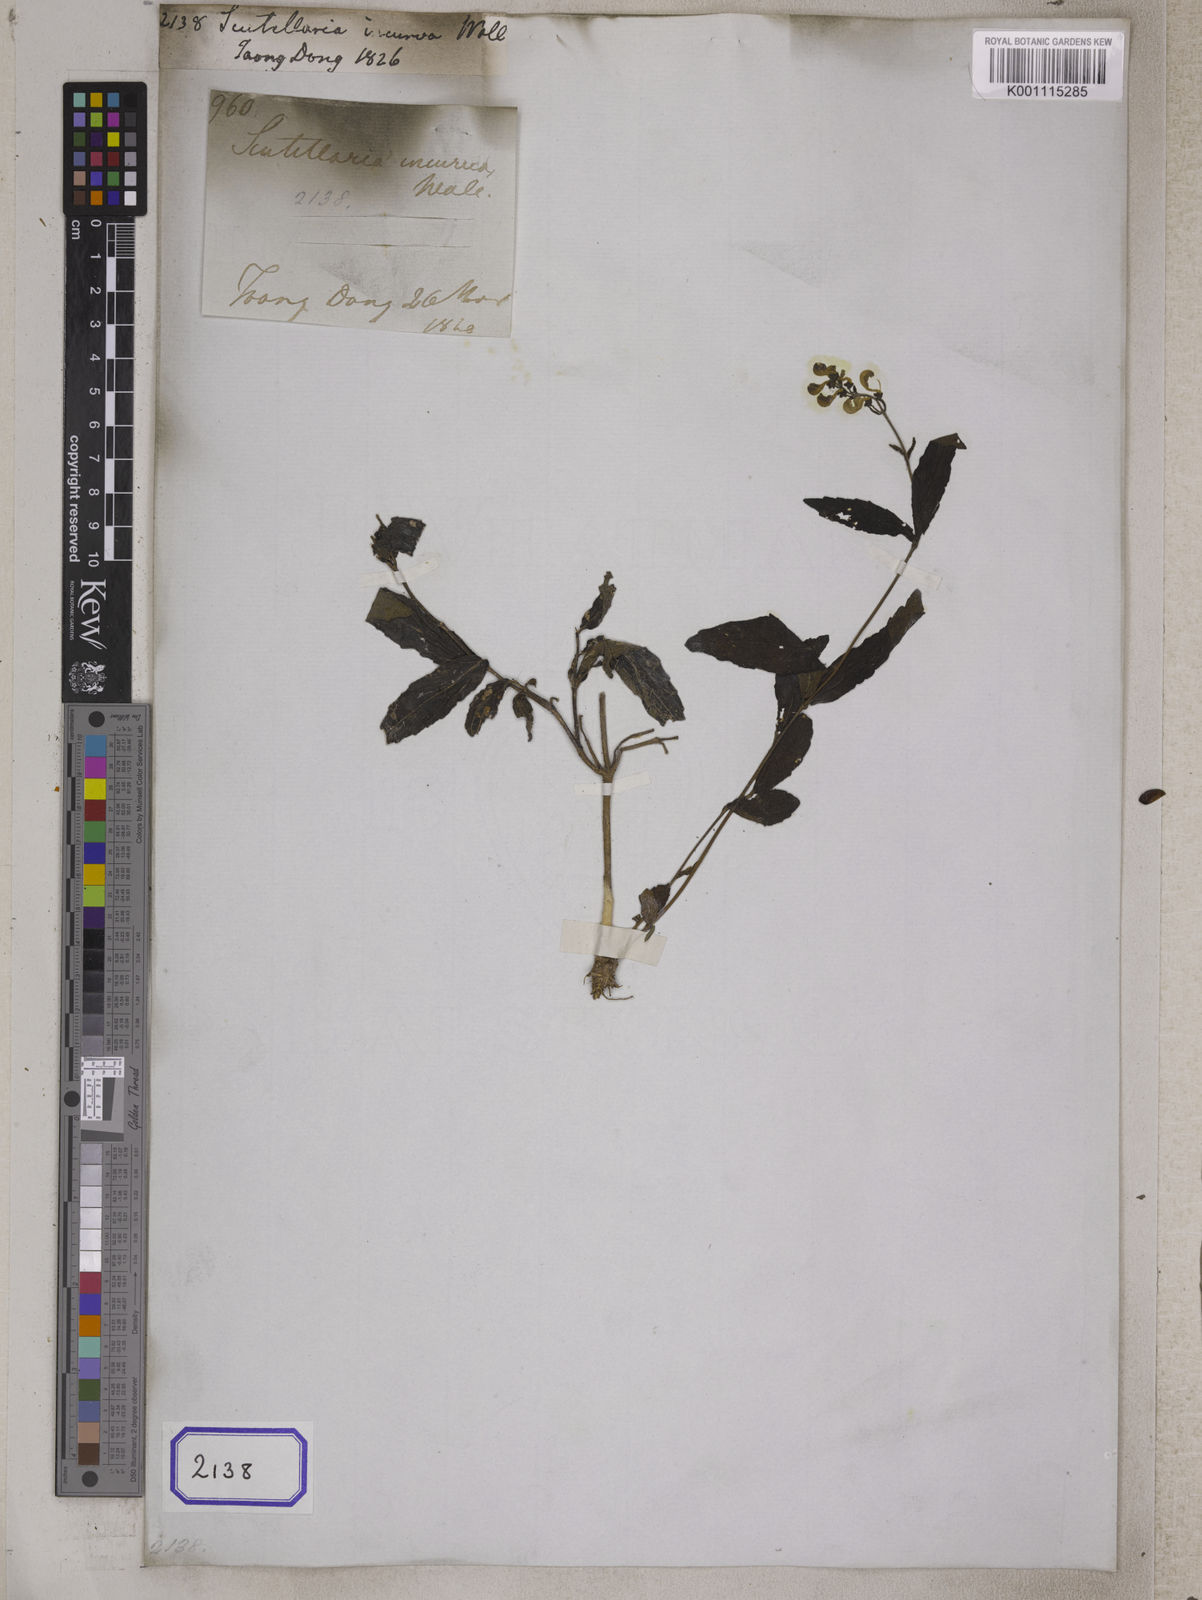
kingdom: Plantae
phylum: Tracheophyta
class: Magnoliopsida
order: Lamiales
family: Lamiaceae
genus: Scutellaria
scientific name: Scutellaria incurva
